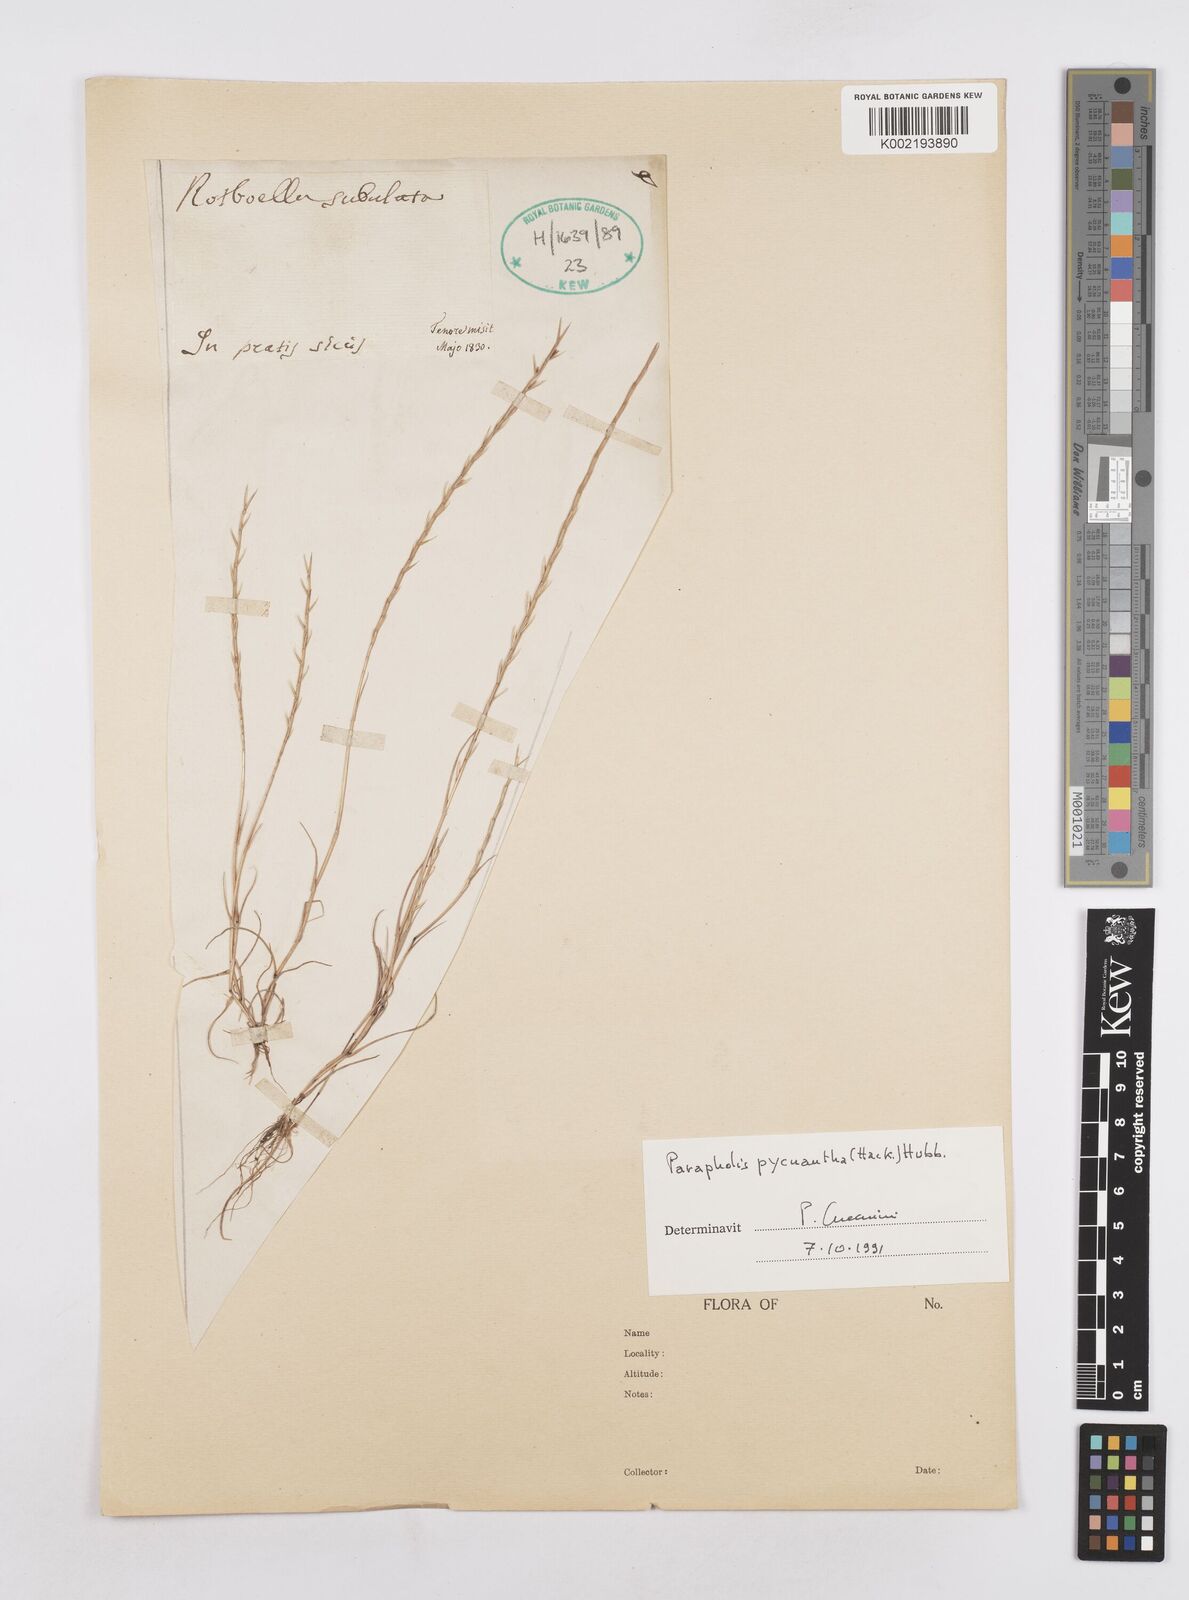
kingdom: Plantae
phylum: Tracheophyta
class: Liliopsida
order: Poales
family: Poaceae
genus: Parapholis
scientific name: Parapholis pycnantha
